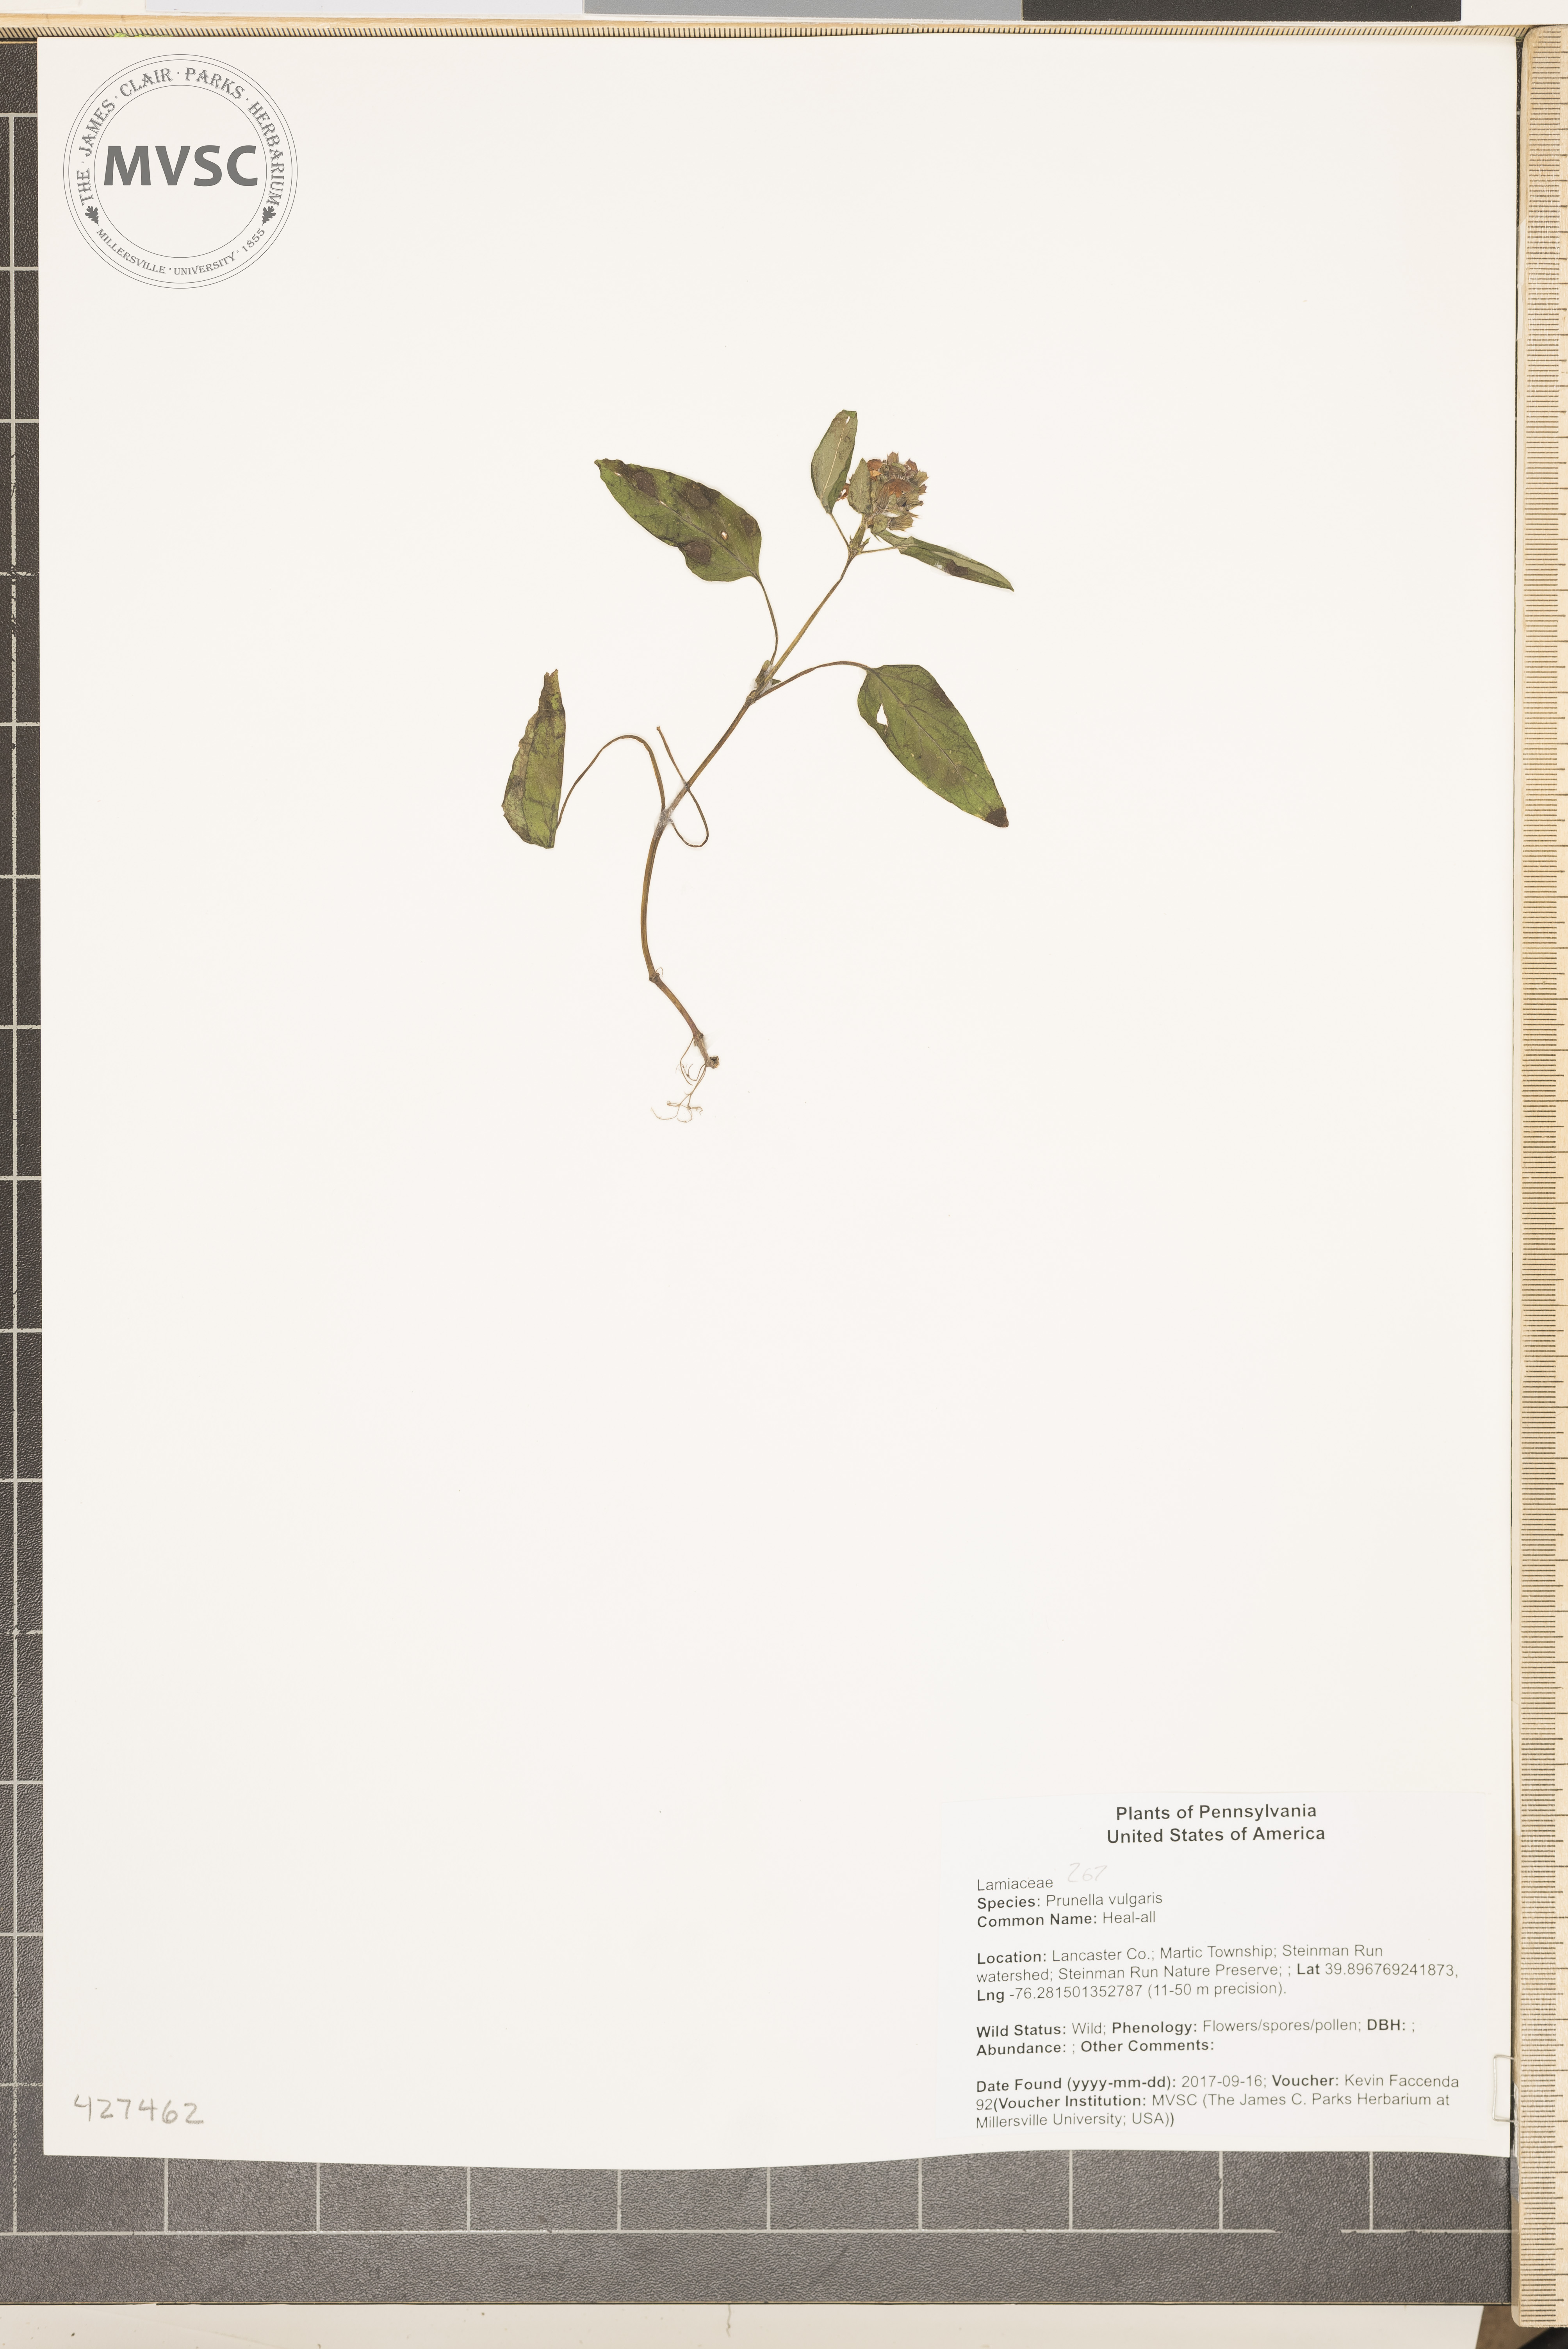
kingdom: Plantae
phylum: Tracheophyta
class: Magnoliopsida
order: Lamiales
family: Lamiaceae
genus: Prunella
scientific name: Prunella vulgaris
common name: Heal-all
